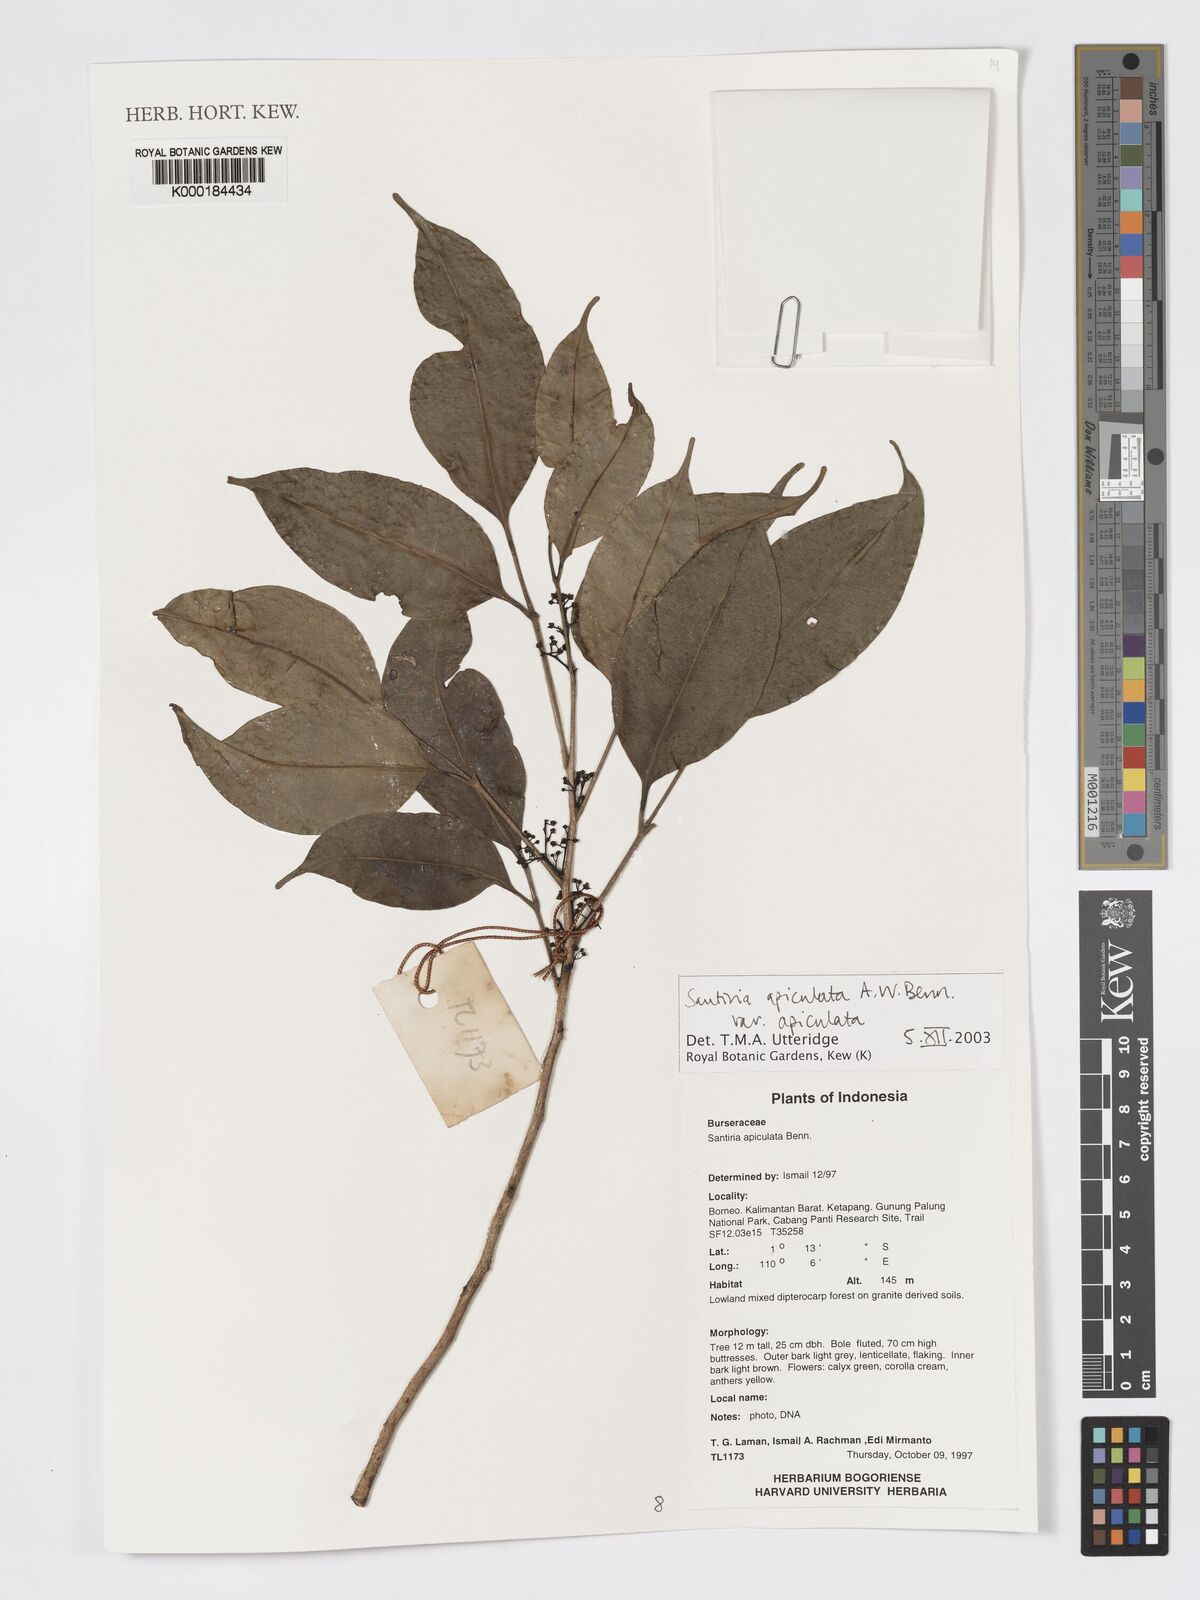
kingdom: Plantae
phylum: Tracheophyta
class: Magnoliopsida
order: Sapindales
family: Burseraceae
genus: Santiria
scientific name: Santiria apiculata
